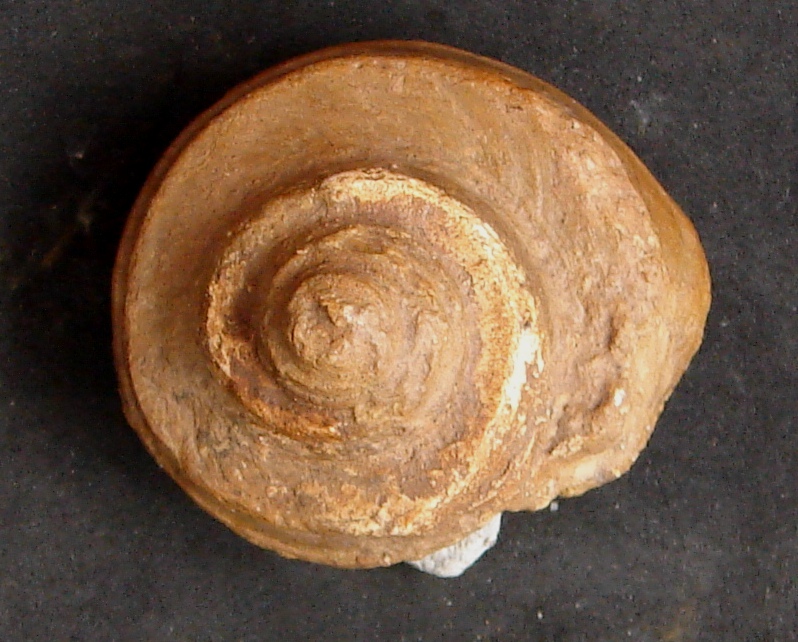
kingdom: Animalia
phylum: Mollusca
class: Gastropoda
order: Pleurotomariida
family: Trochotomidae
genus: Trochotoma
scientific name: Trochotoma affinis
